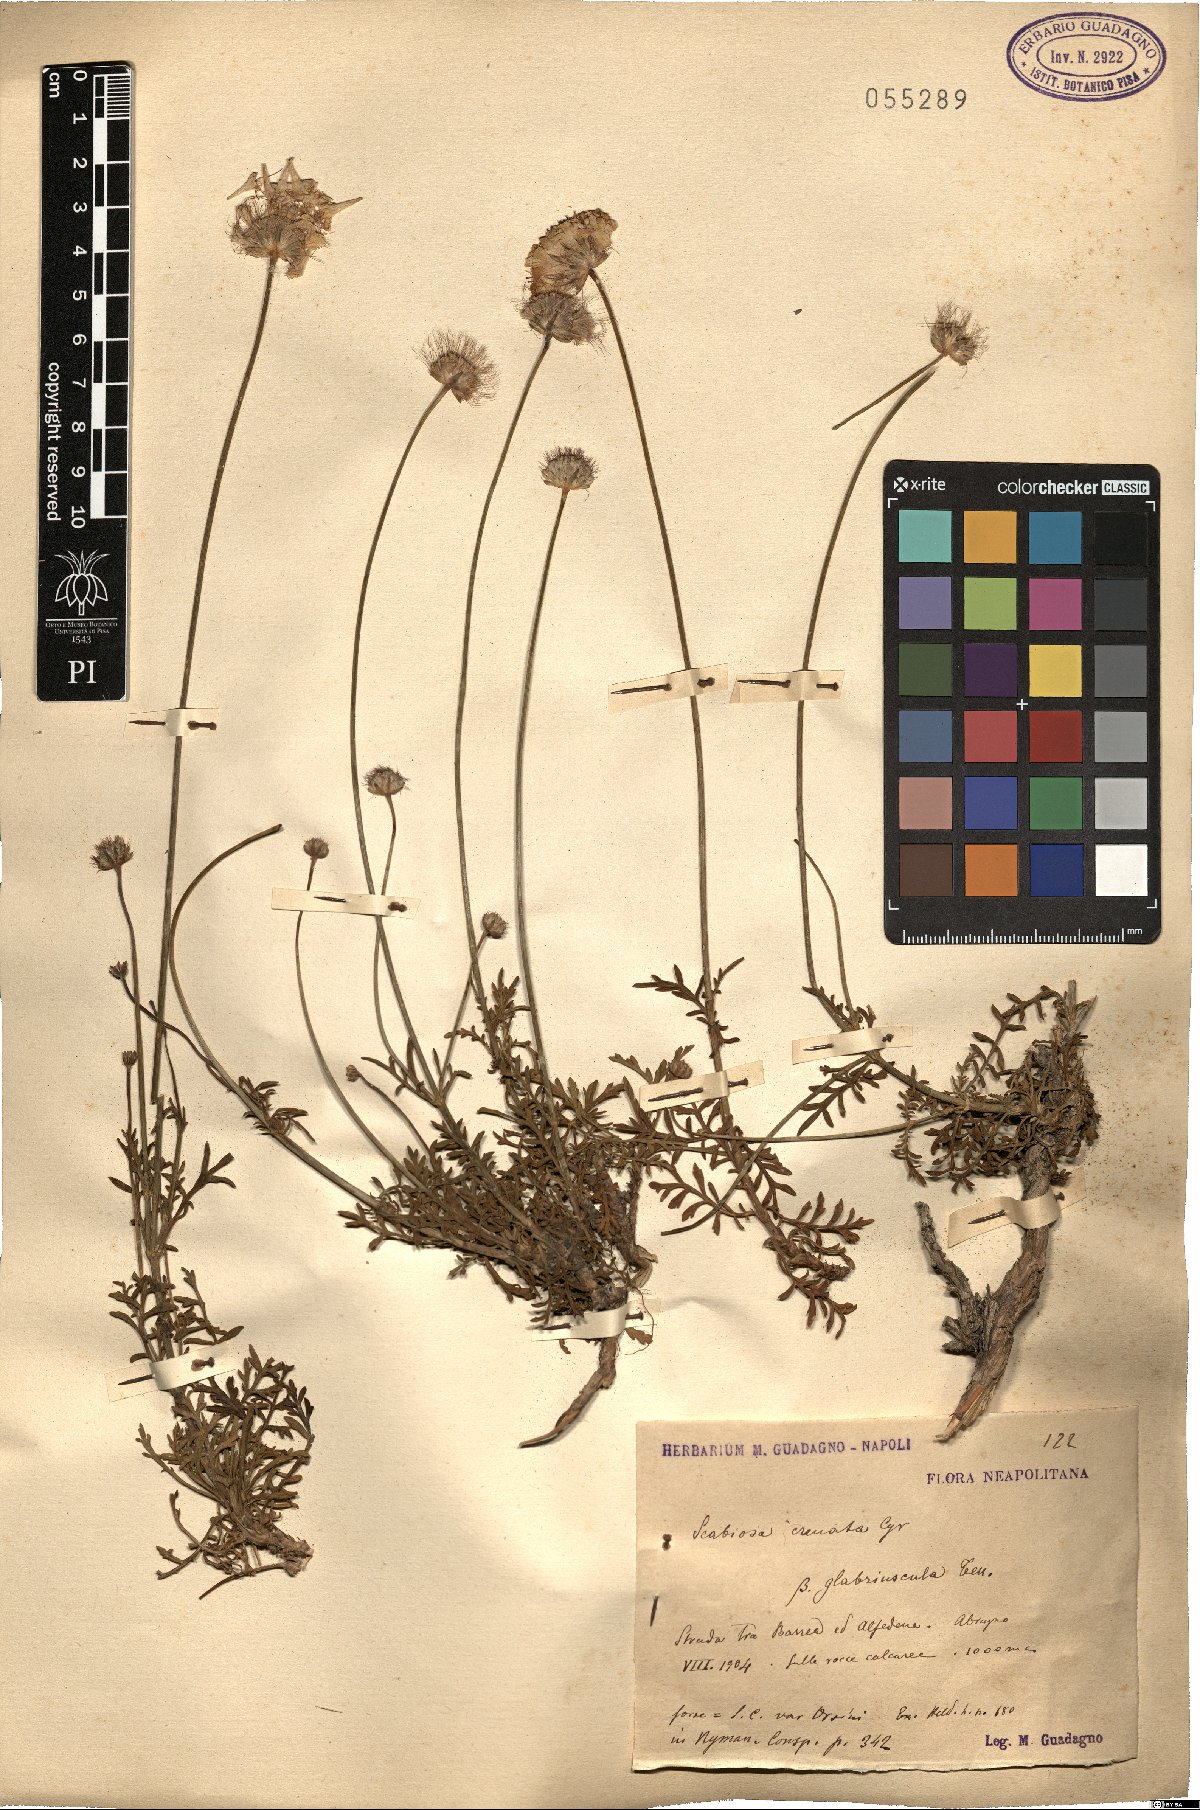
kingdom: Plantae
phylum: Tracheophyta
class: Magnoliopsida
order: Dipsacales
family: Caprifoliaceae
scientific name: Caprifoliaceae
